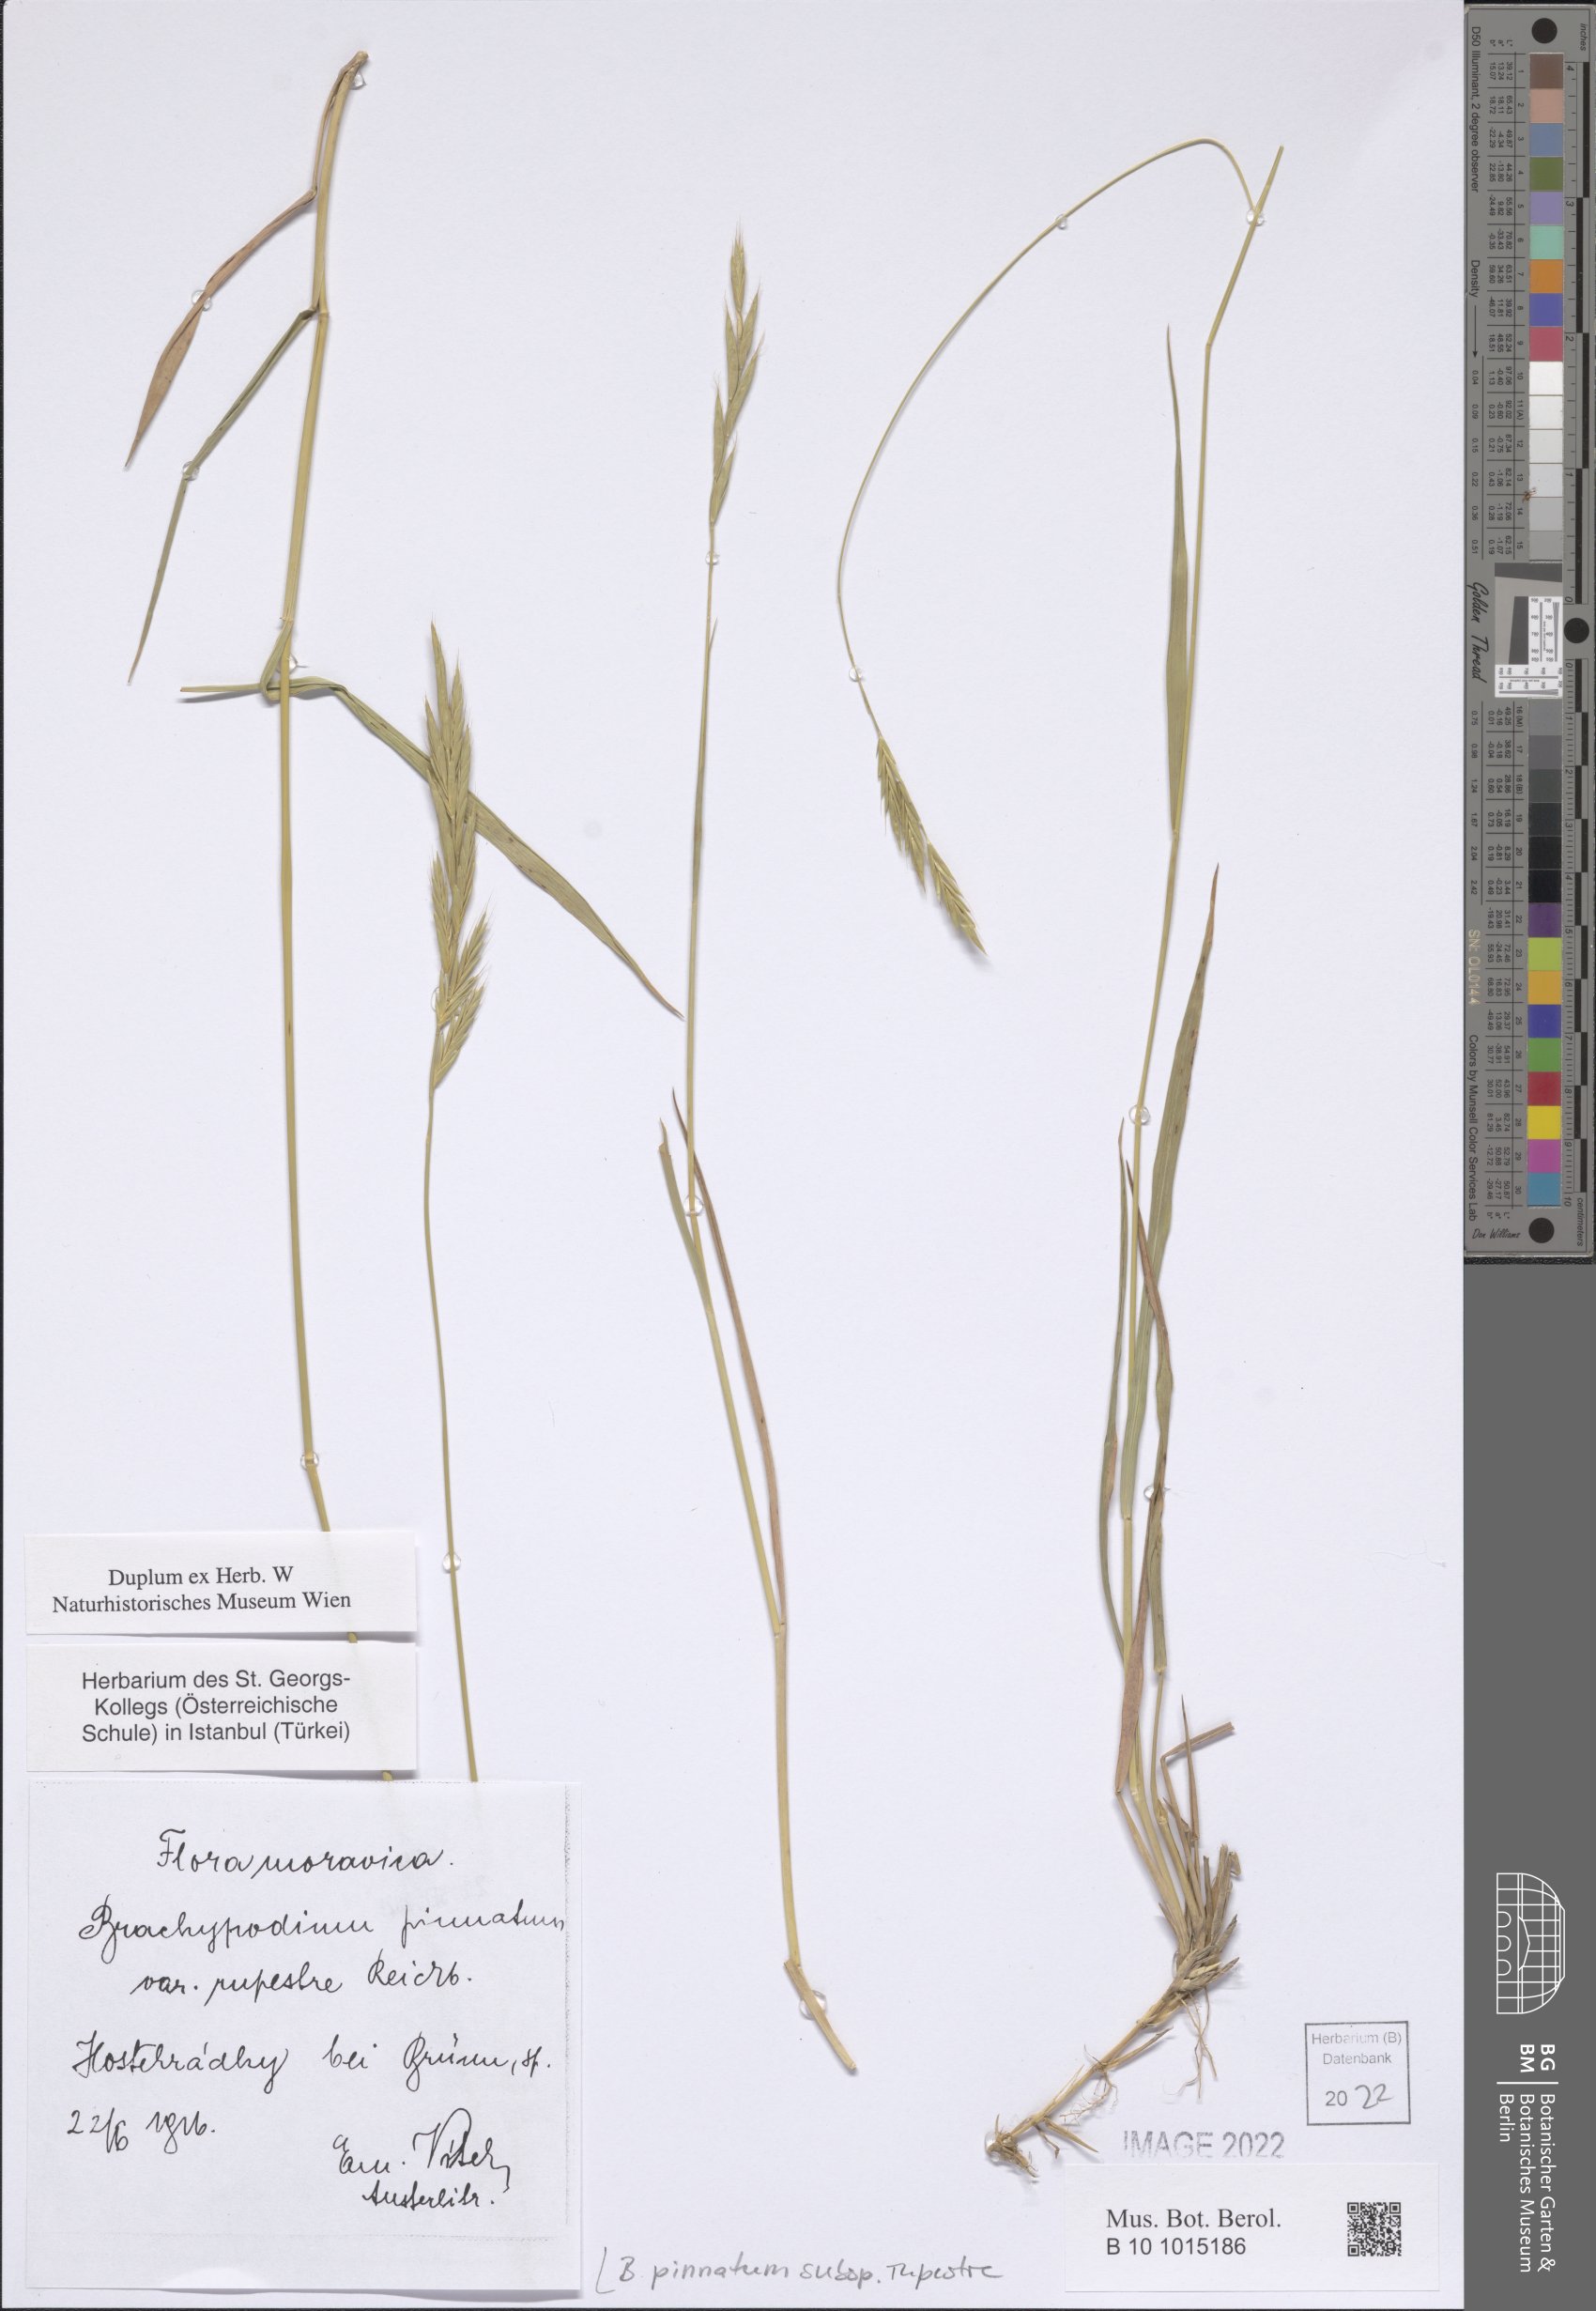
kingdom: Plantae
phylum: Tracheophyta
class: Liliopsida
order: Poales
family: Poaceae
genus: Brachypodium
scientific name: Brachypodium pinnatum
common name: Tor grass
